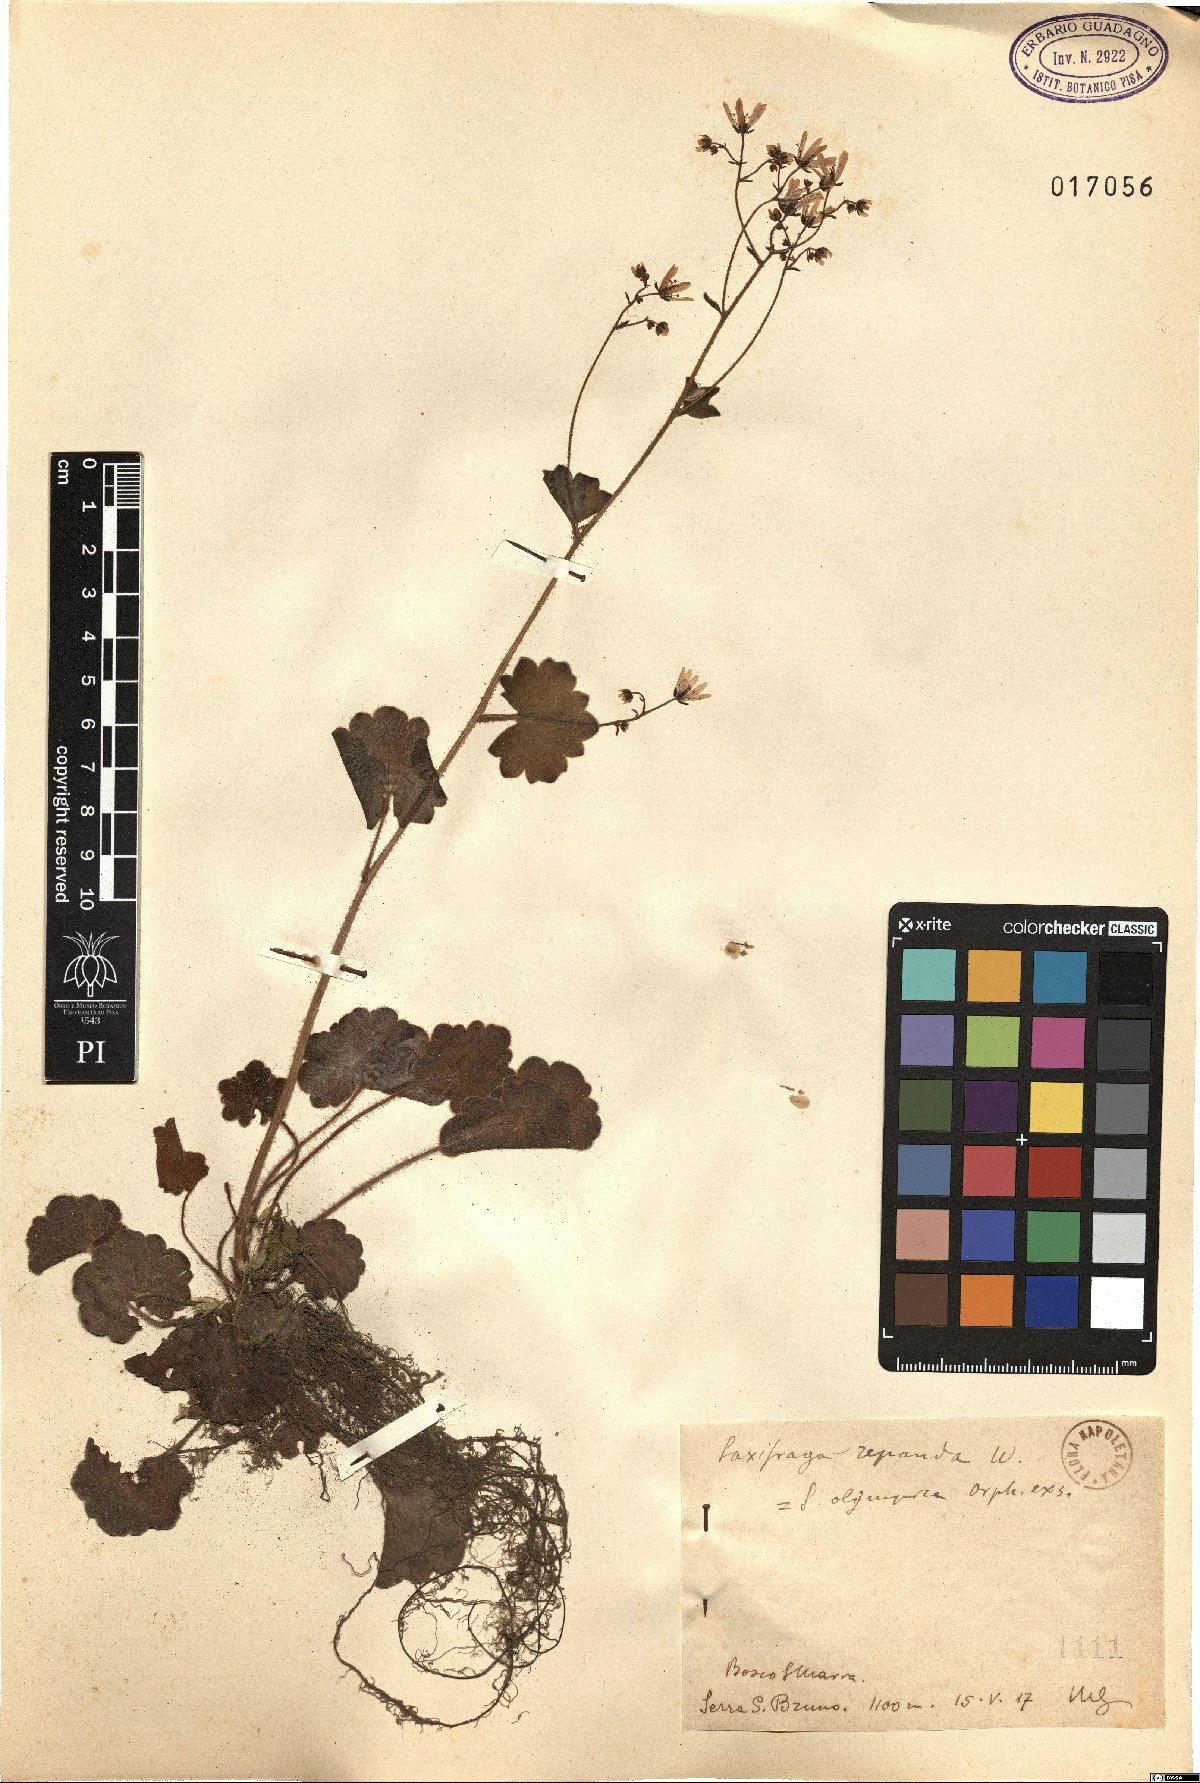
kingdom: Plantae
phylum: Tracheophyta
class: Magnoliopsida
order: Saxifragales
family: Saxifragaceae
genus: Saxifraga
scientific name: Saxifraga repanda
